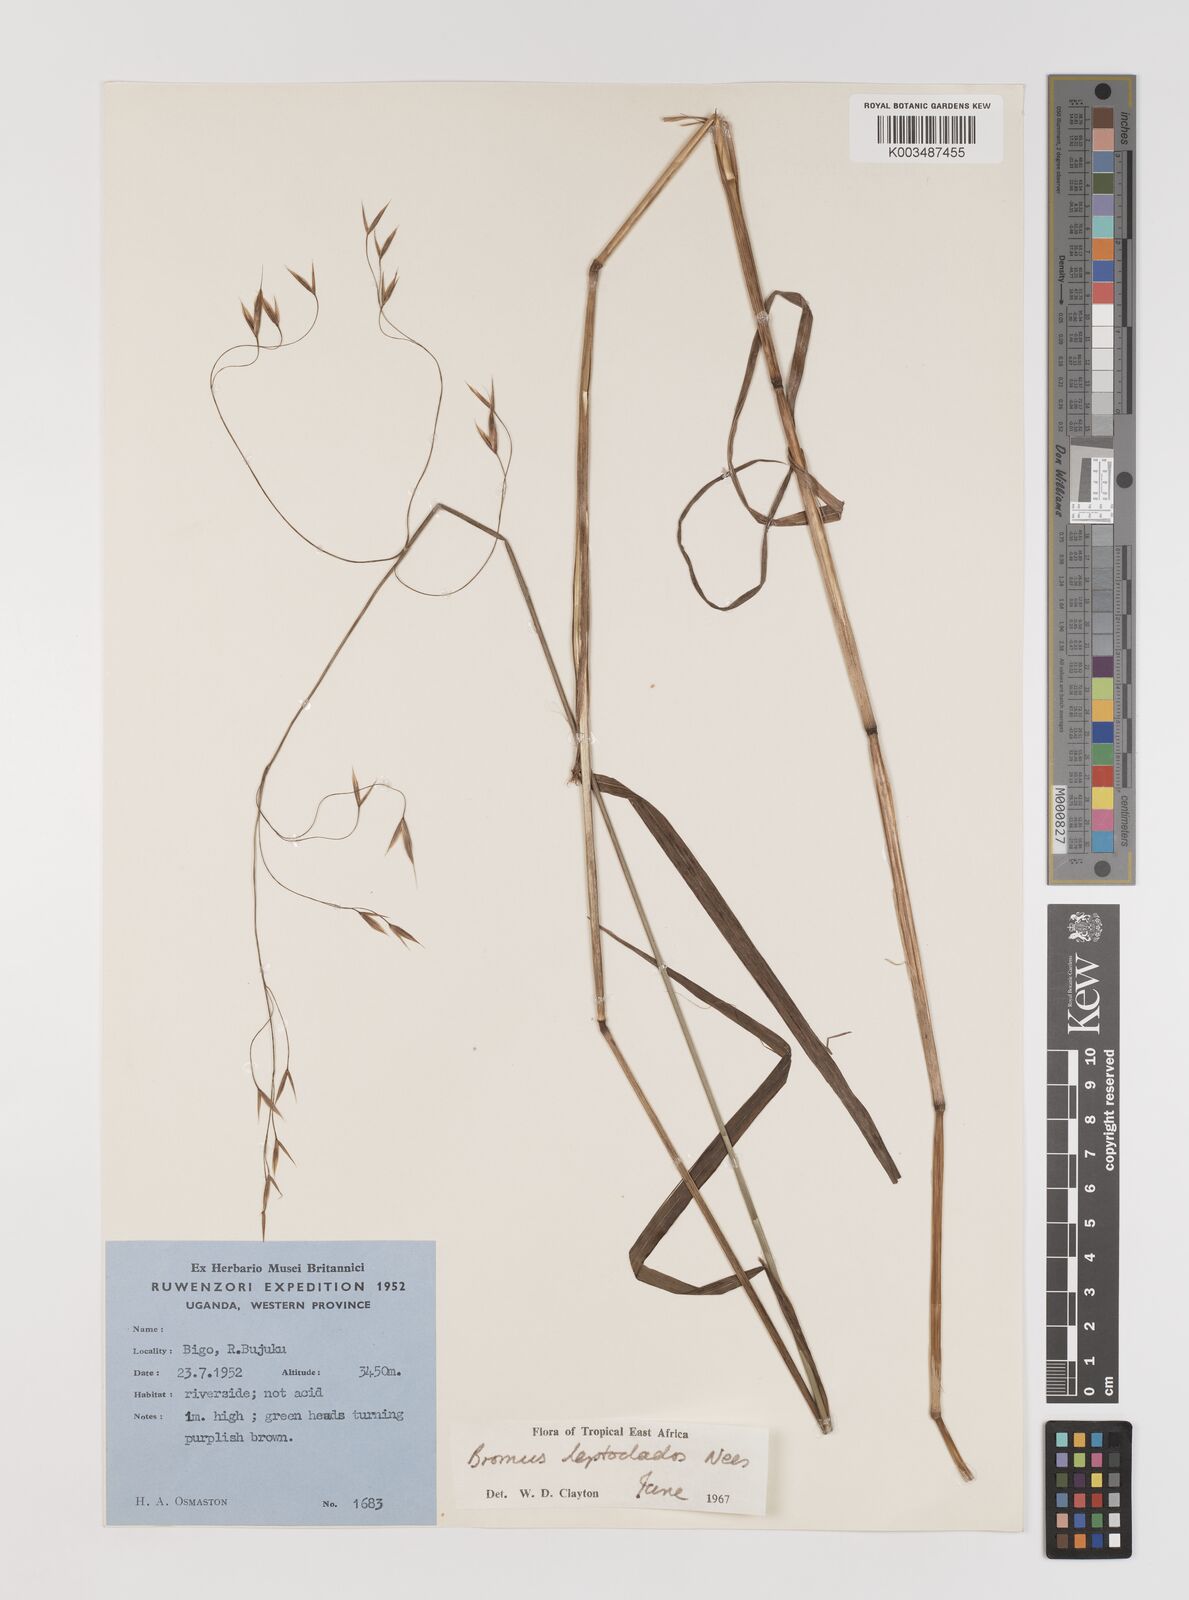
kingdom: Plantae
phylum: Tracheophyta
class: Liliopsida
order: Poales
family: Poaceae
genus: Bromus
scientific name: Bromus leptoclados
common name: Mountain bromegrass
